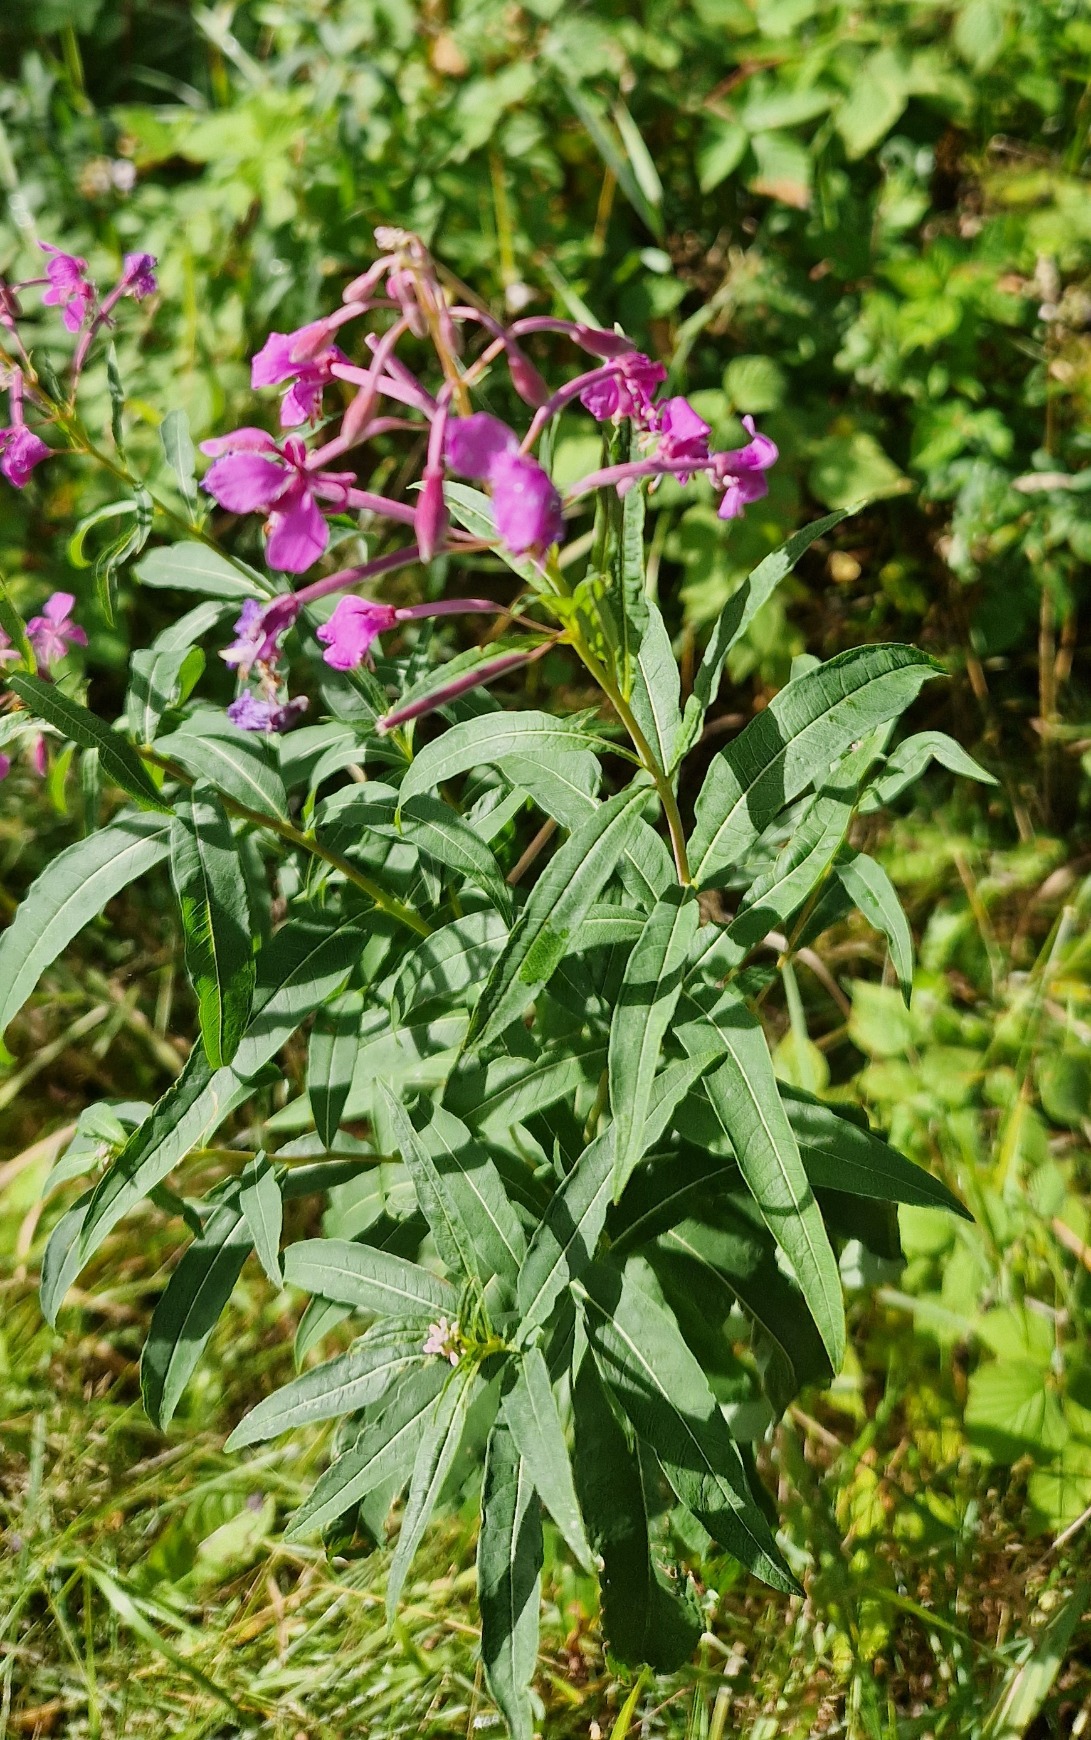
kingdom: Plantae
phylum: Tracheophyta
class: Magnoliopsida
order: Myrtales
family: Onagraceae
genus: Chamaenerion
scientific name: Chamaenerion angustifolium
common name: Gederams
